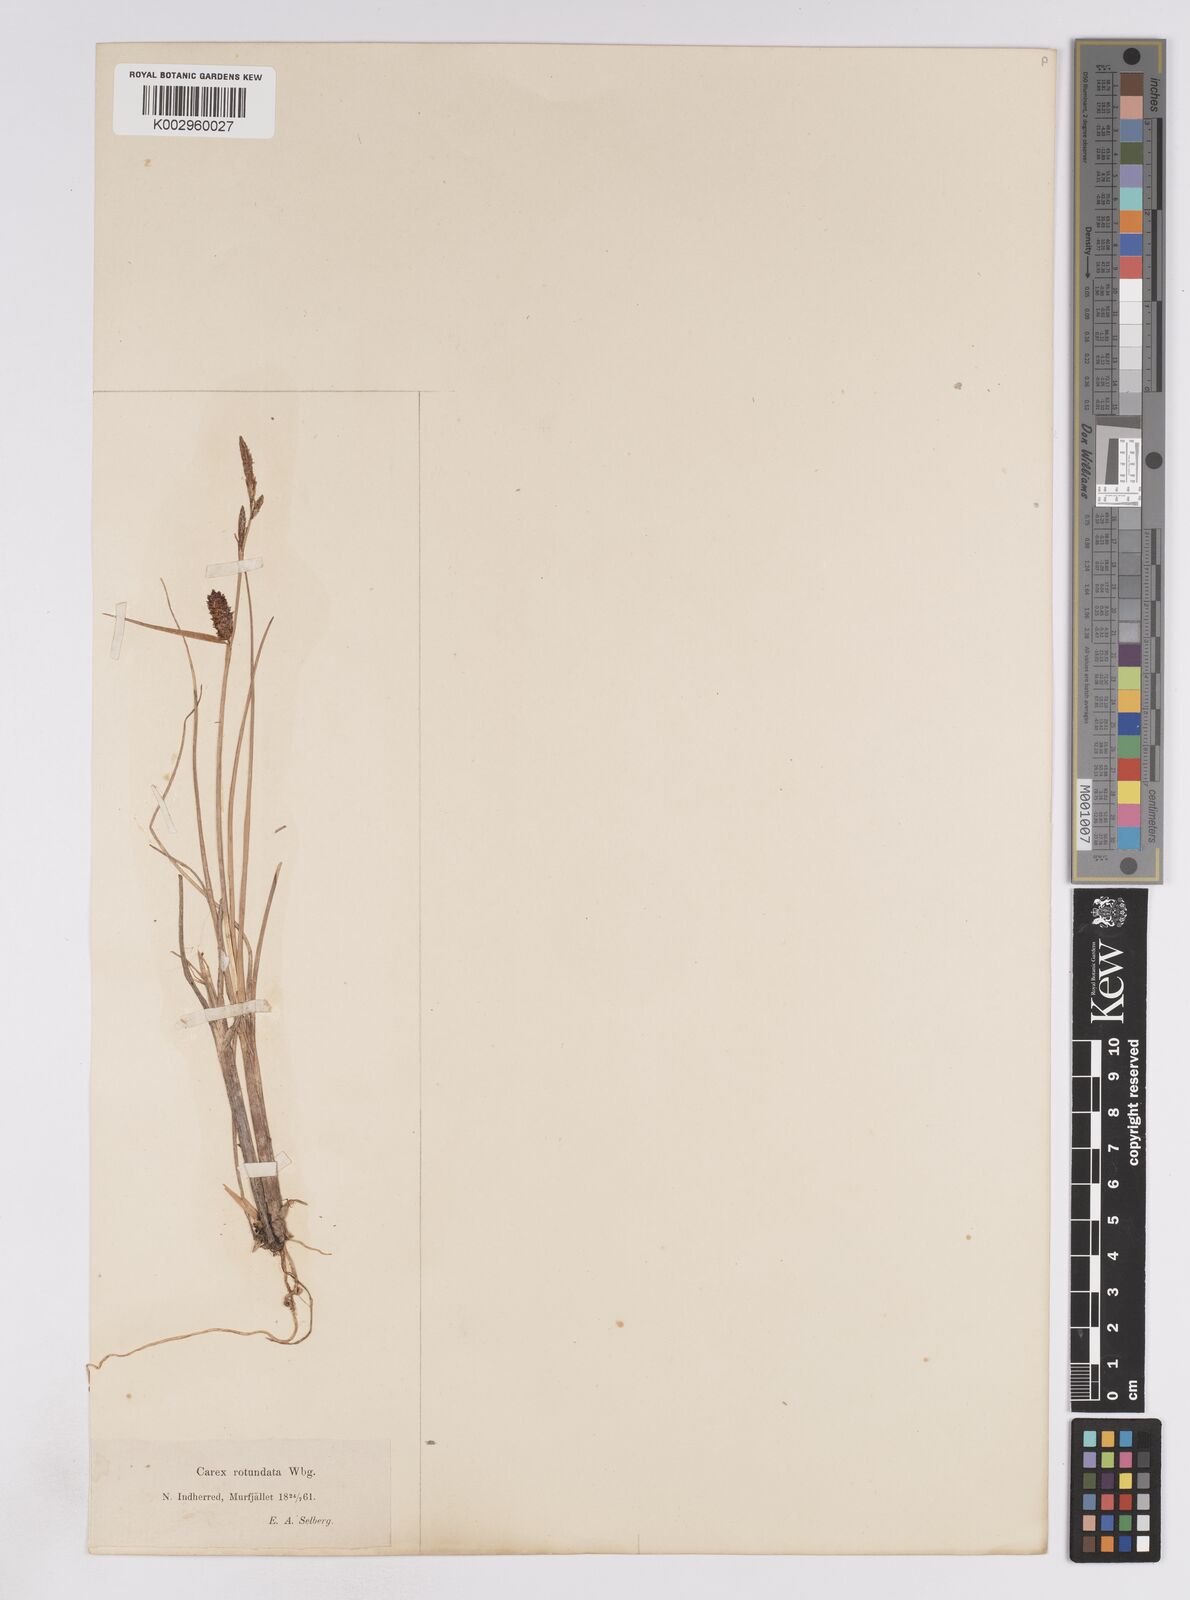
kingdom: Plantae
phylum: Tracheophyta
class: Liliopsida
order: Poales
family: Cyperaceae
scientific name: Cyperaceae
